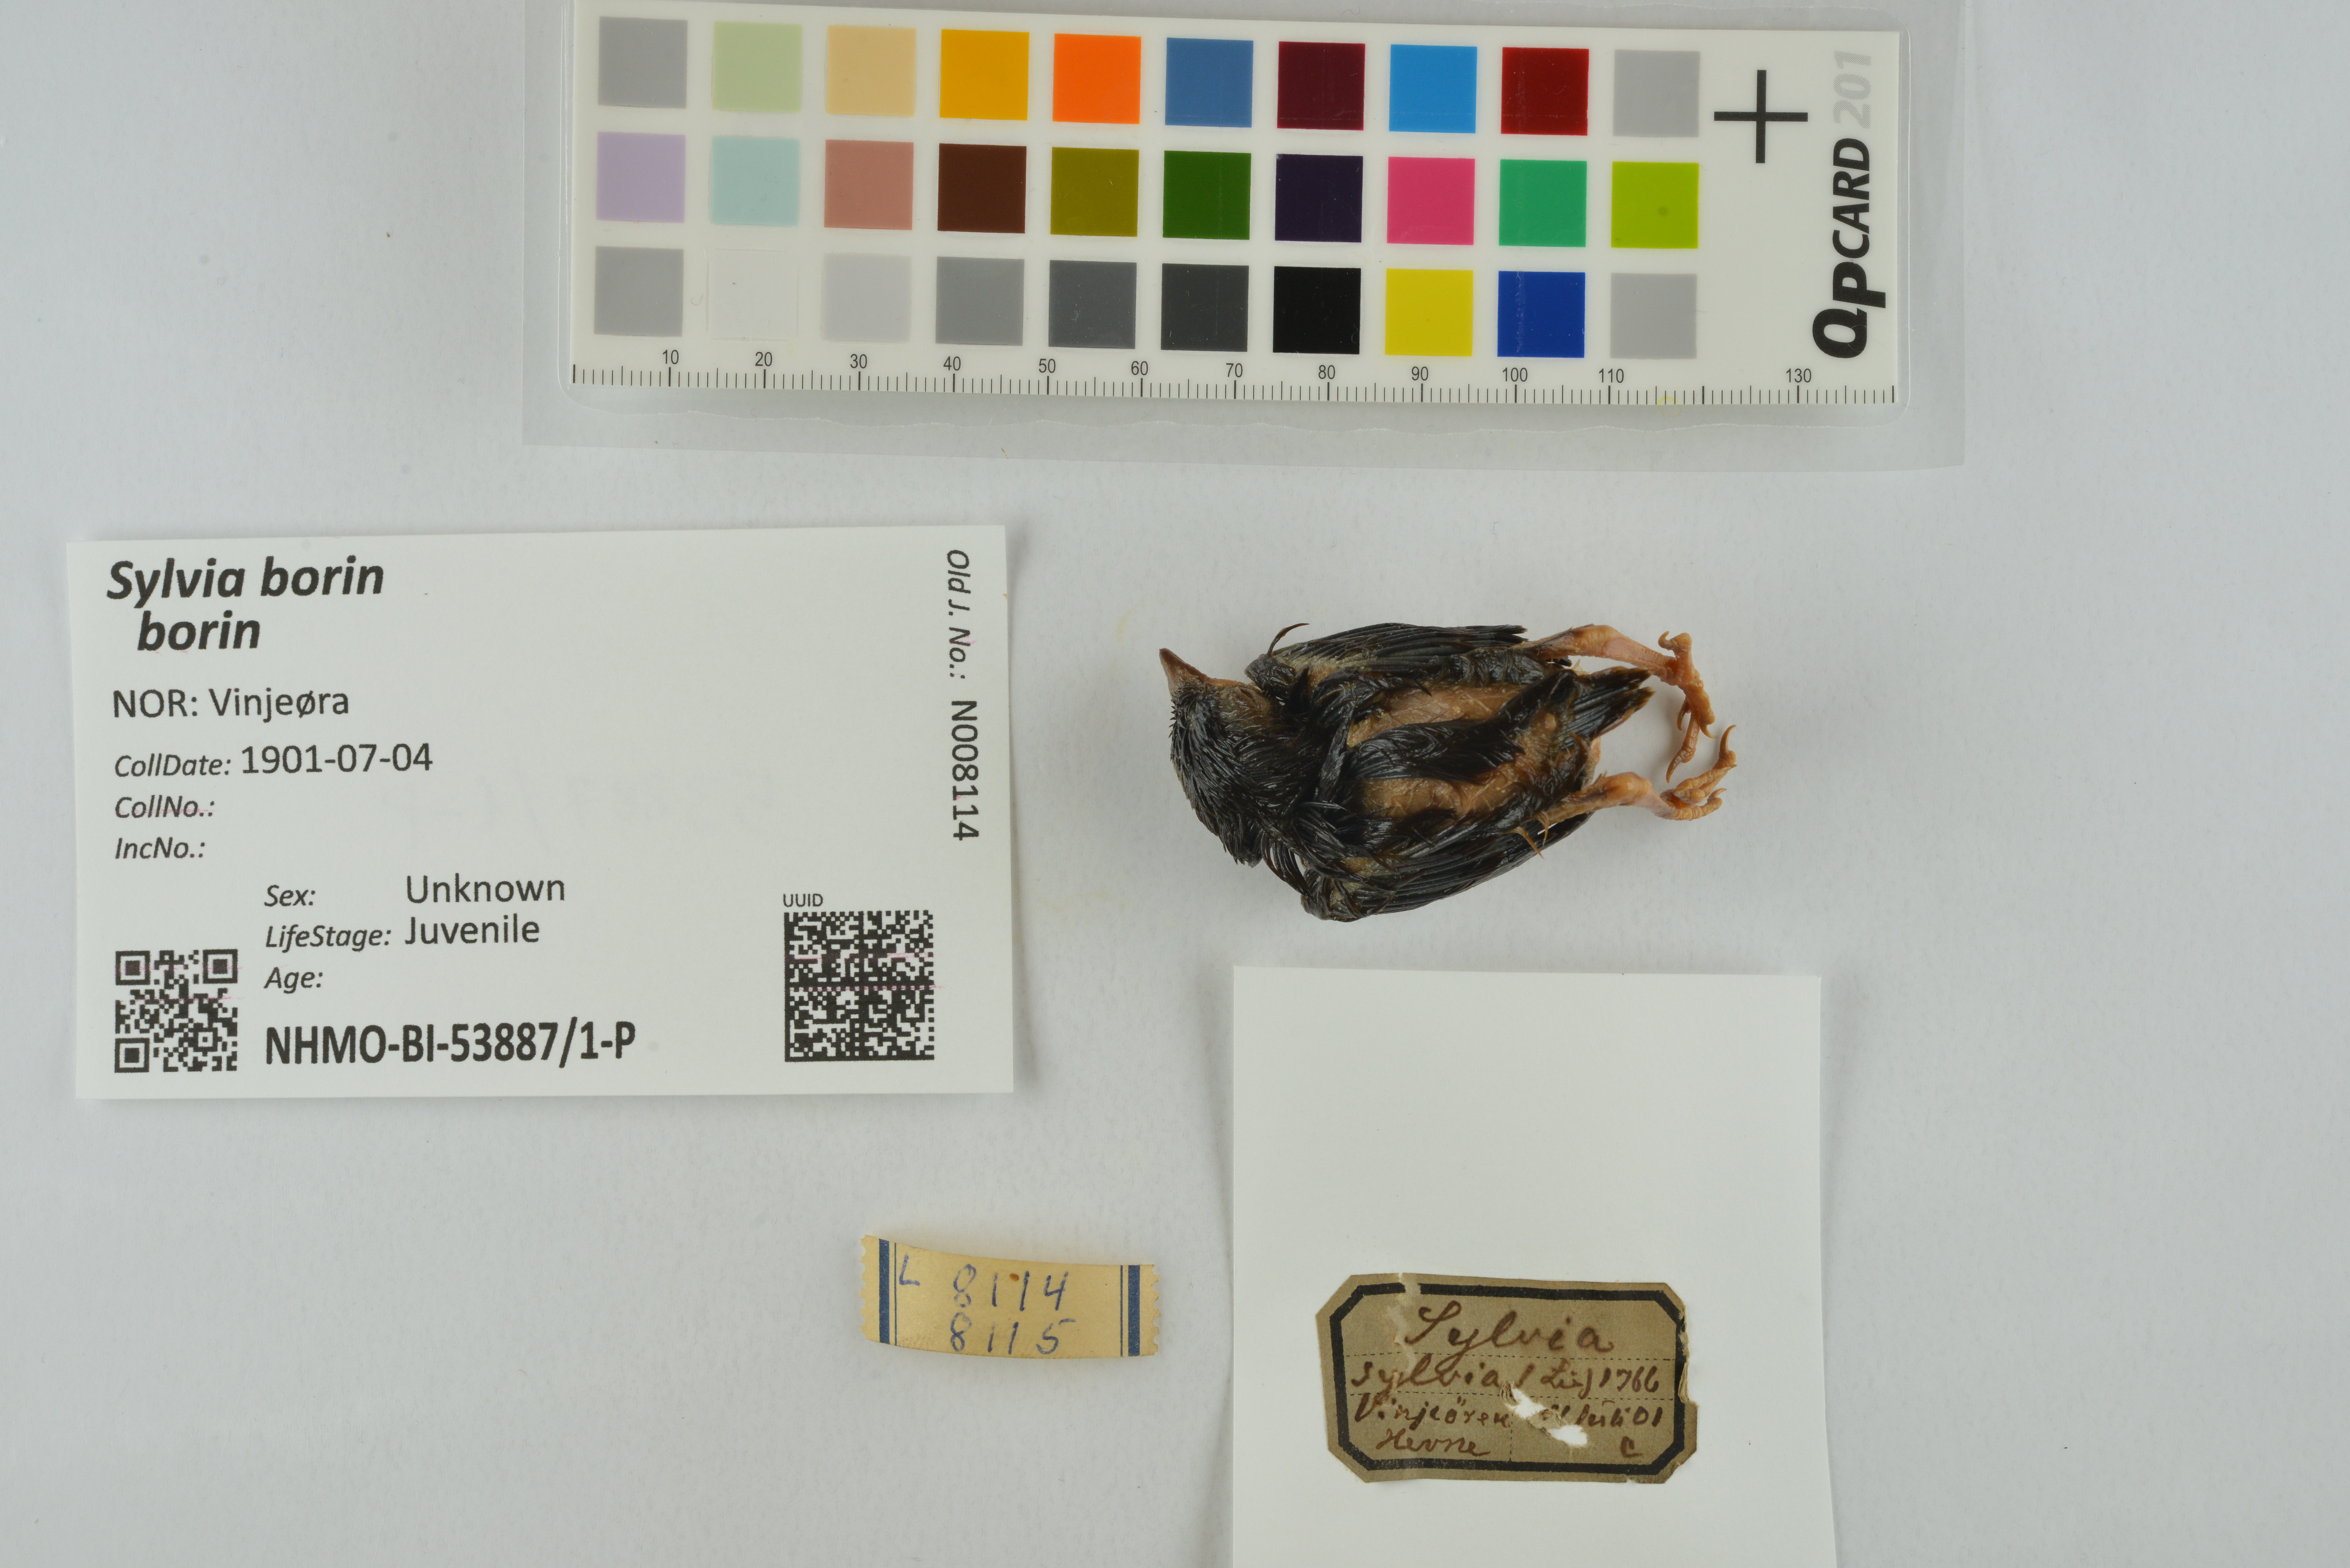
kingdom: Animalia
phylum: Chordata
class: Aves
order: Passeriformes
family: Sylviidae
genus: Sylvia
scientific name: Sylvia borin
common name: Garden warbler
